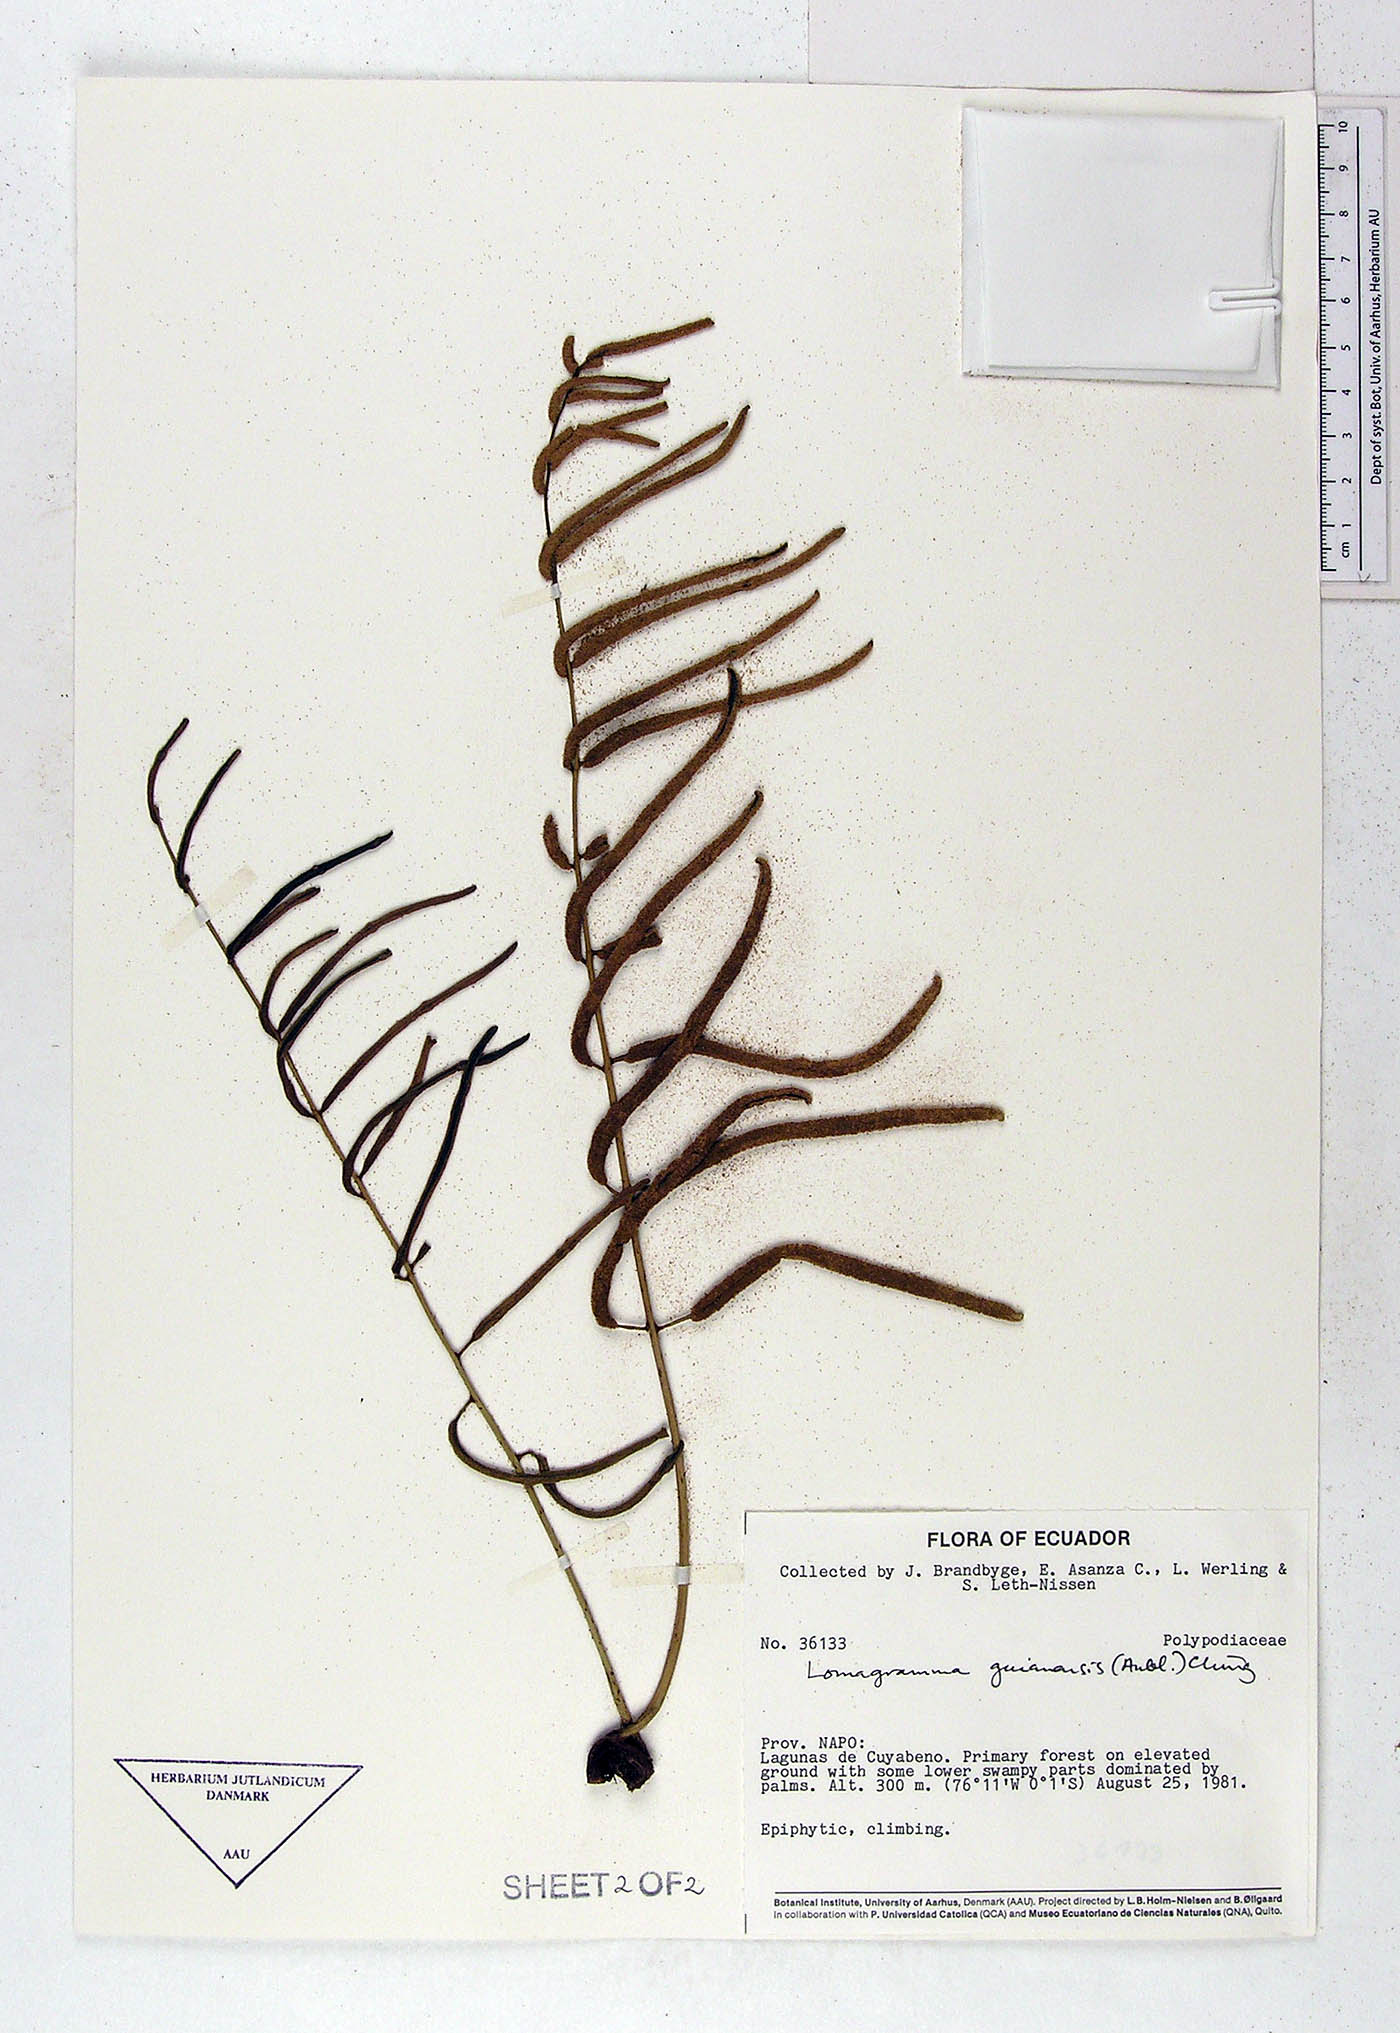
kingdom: Plantae
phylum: Tracheophyta
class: Polypodiopsida
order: Polypodiales
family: Dryopteridaceae
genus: Mickelia
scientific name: Mickelia guianensis
